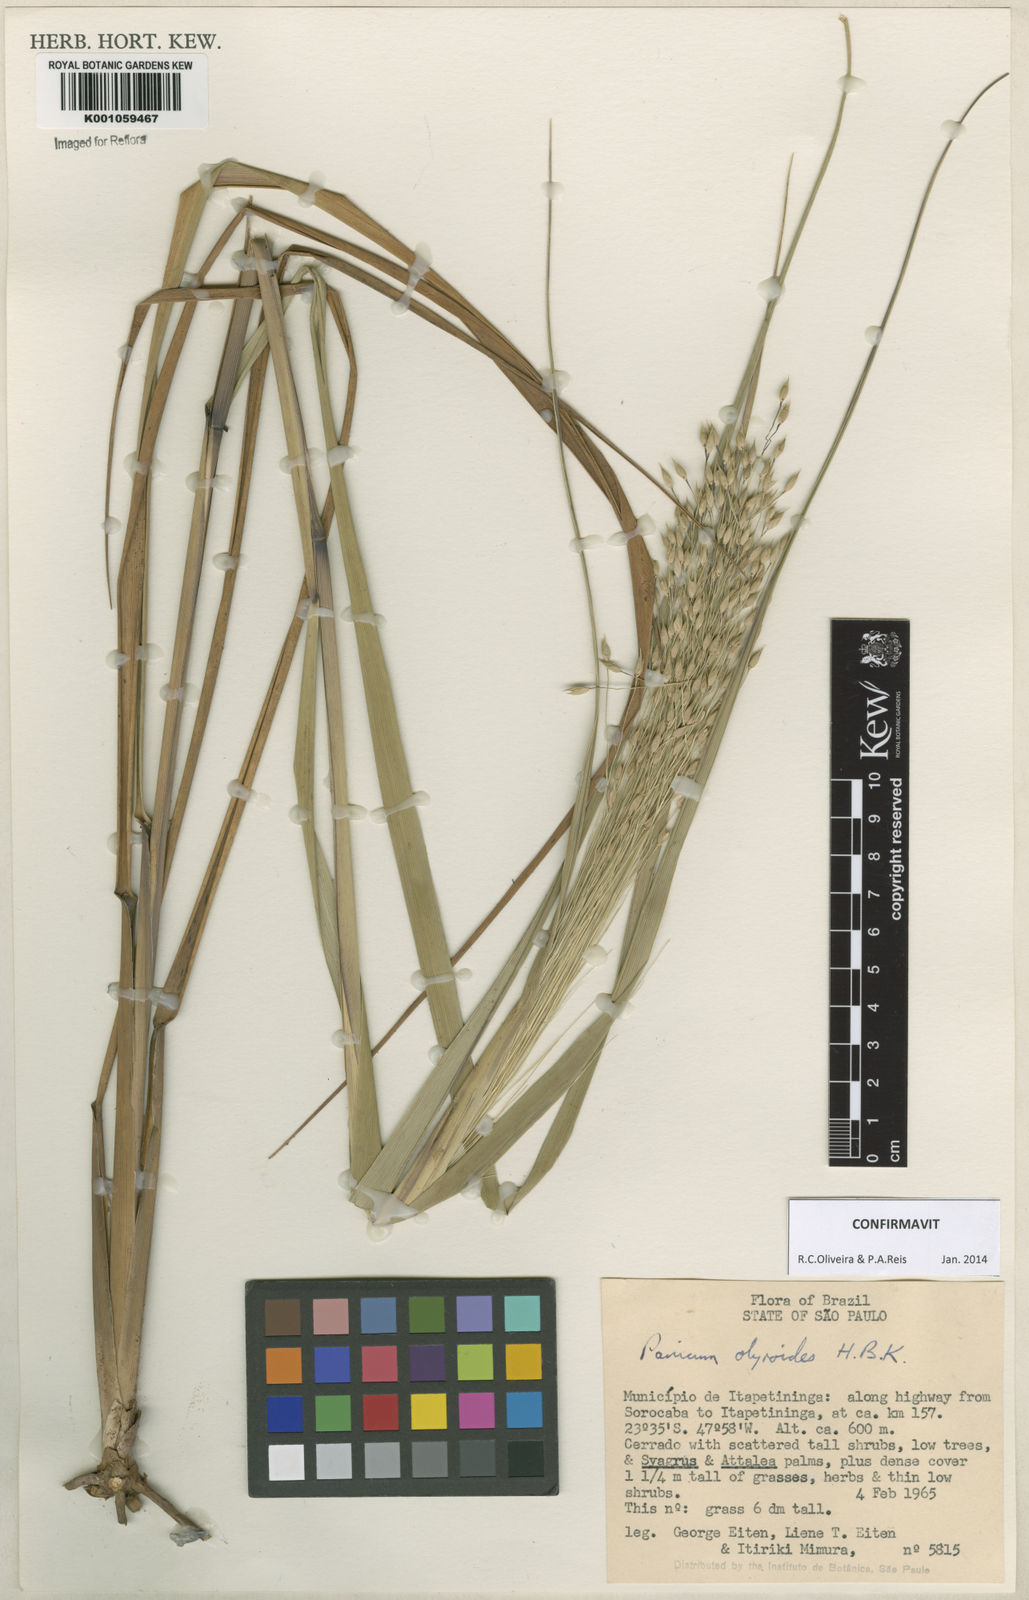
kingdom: Plantae
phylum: Tracheophyta
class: Liliopsida
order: Poales
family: Poaceae
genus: Panicum
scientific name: Panicum olyroides
